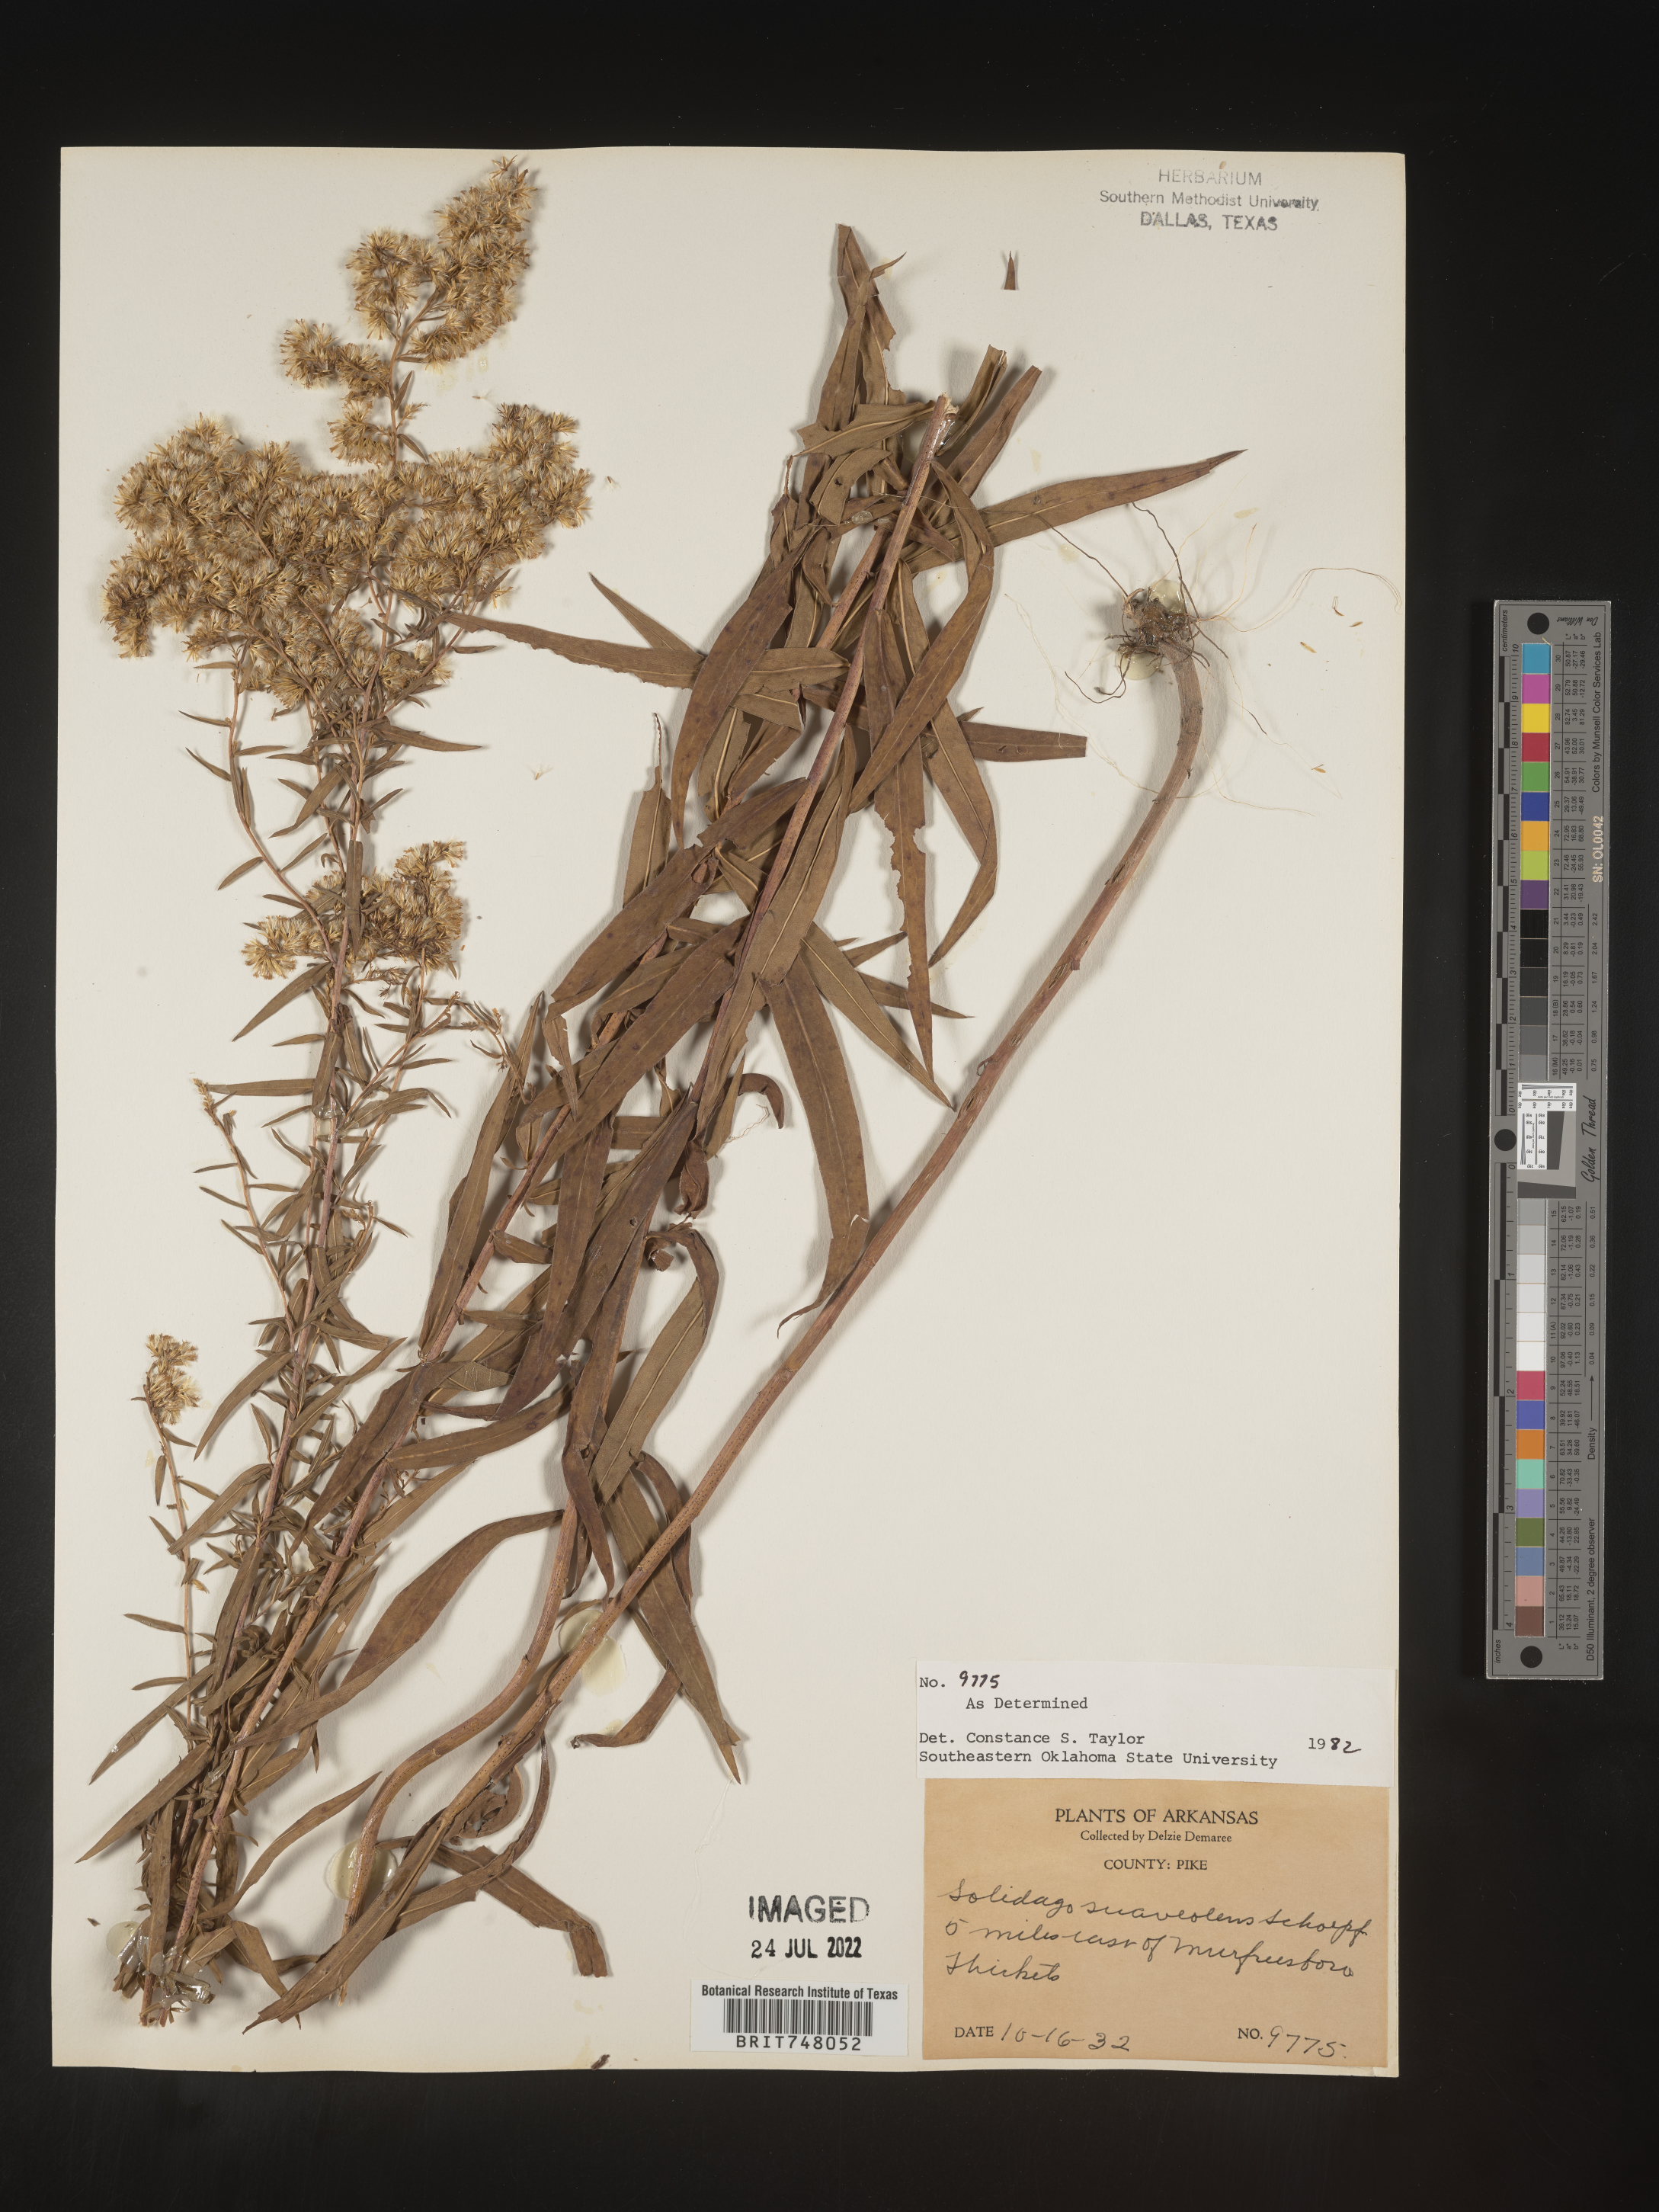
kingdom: Plantae
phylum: Tracheophyta
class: Magnoliopsida
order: Asterales
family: Asteraceae
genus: Solidago
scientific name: Solidago odora
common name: Anise-scented goldenrod
